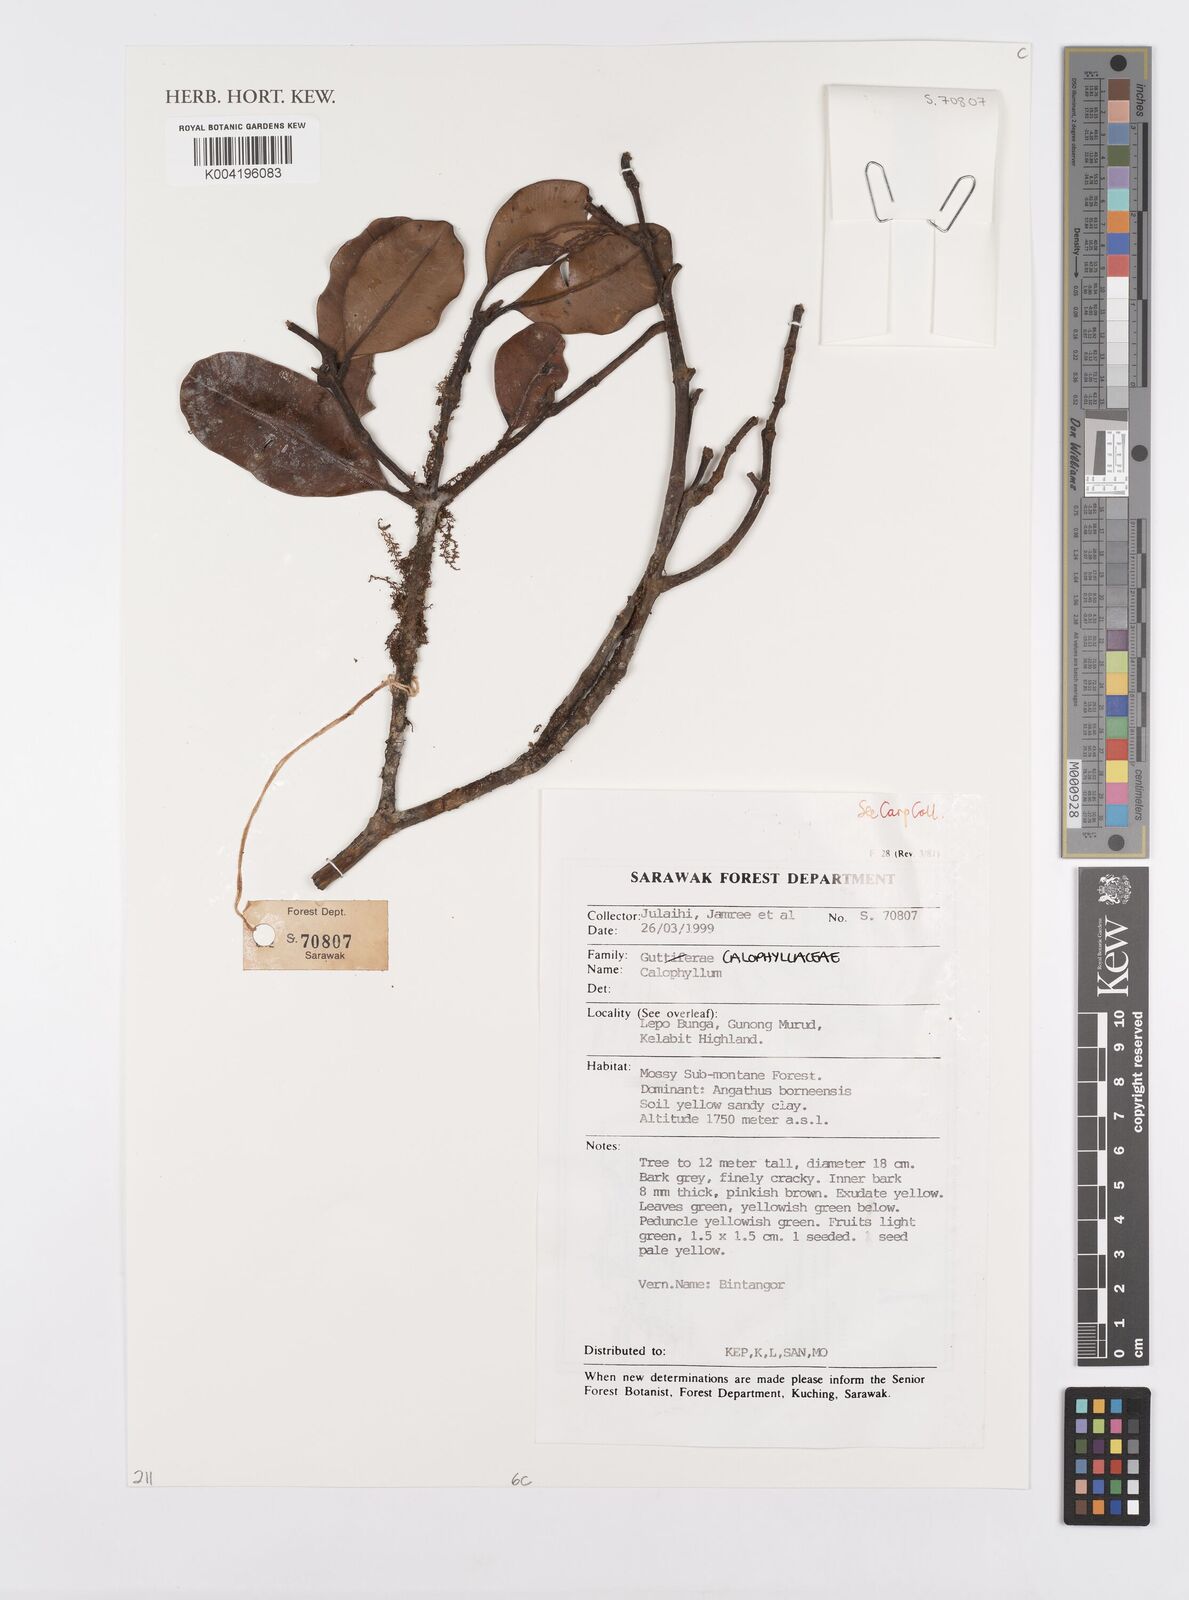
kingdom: Plantae
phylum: Tracheophyta
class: Magnoliopsida
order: Malpighiales
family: Calophyllaceae
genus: Calophyllum
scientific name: Calophyllum
